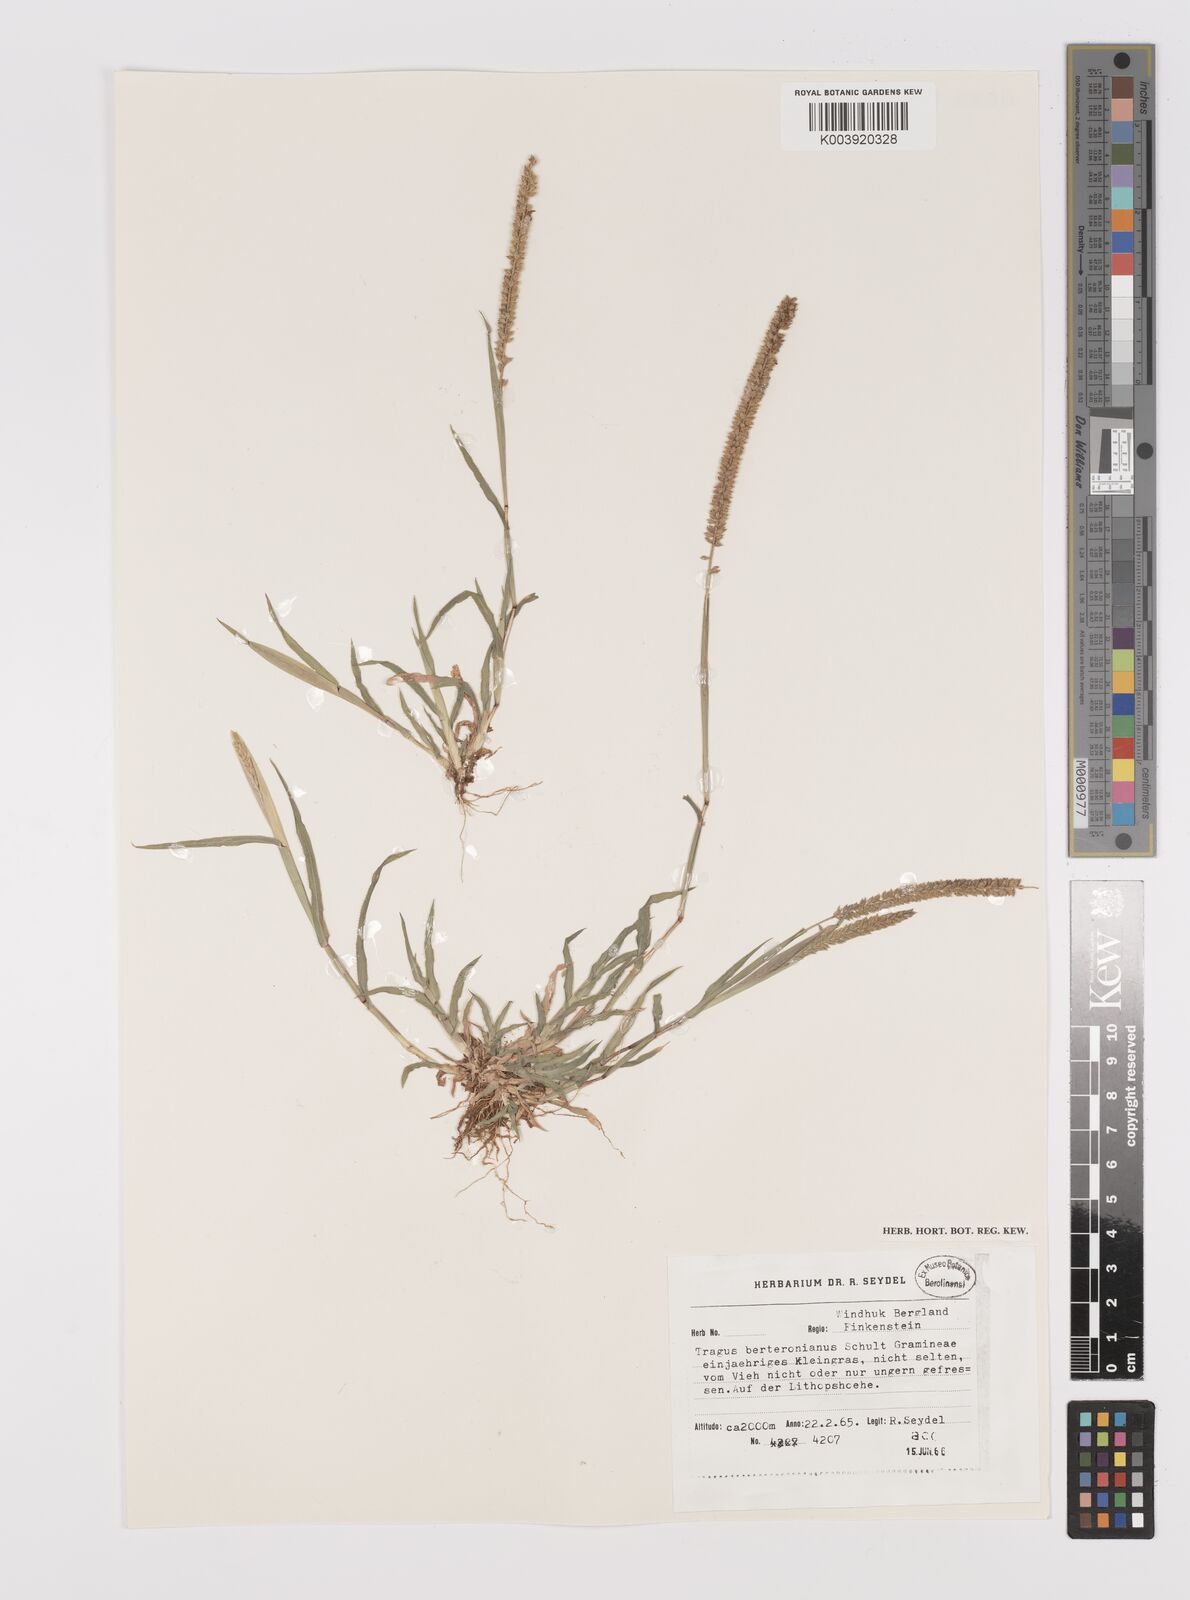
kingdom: Plantae
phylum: Tracheophyta
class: Liliopsida
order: Poales
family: Poaceae
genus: Tragus
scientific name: Tragus berteronianus
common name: African bur-grass
